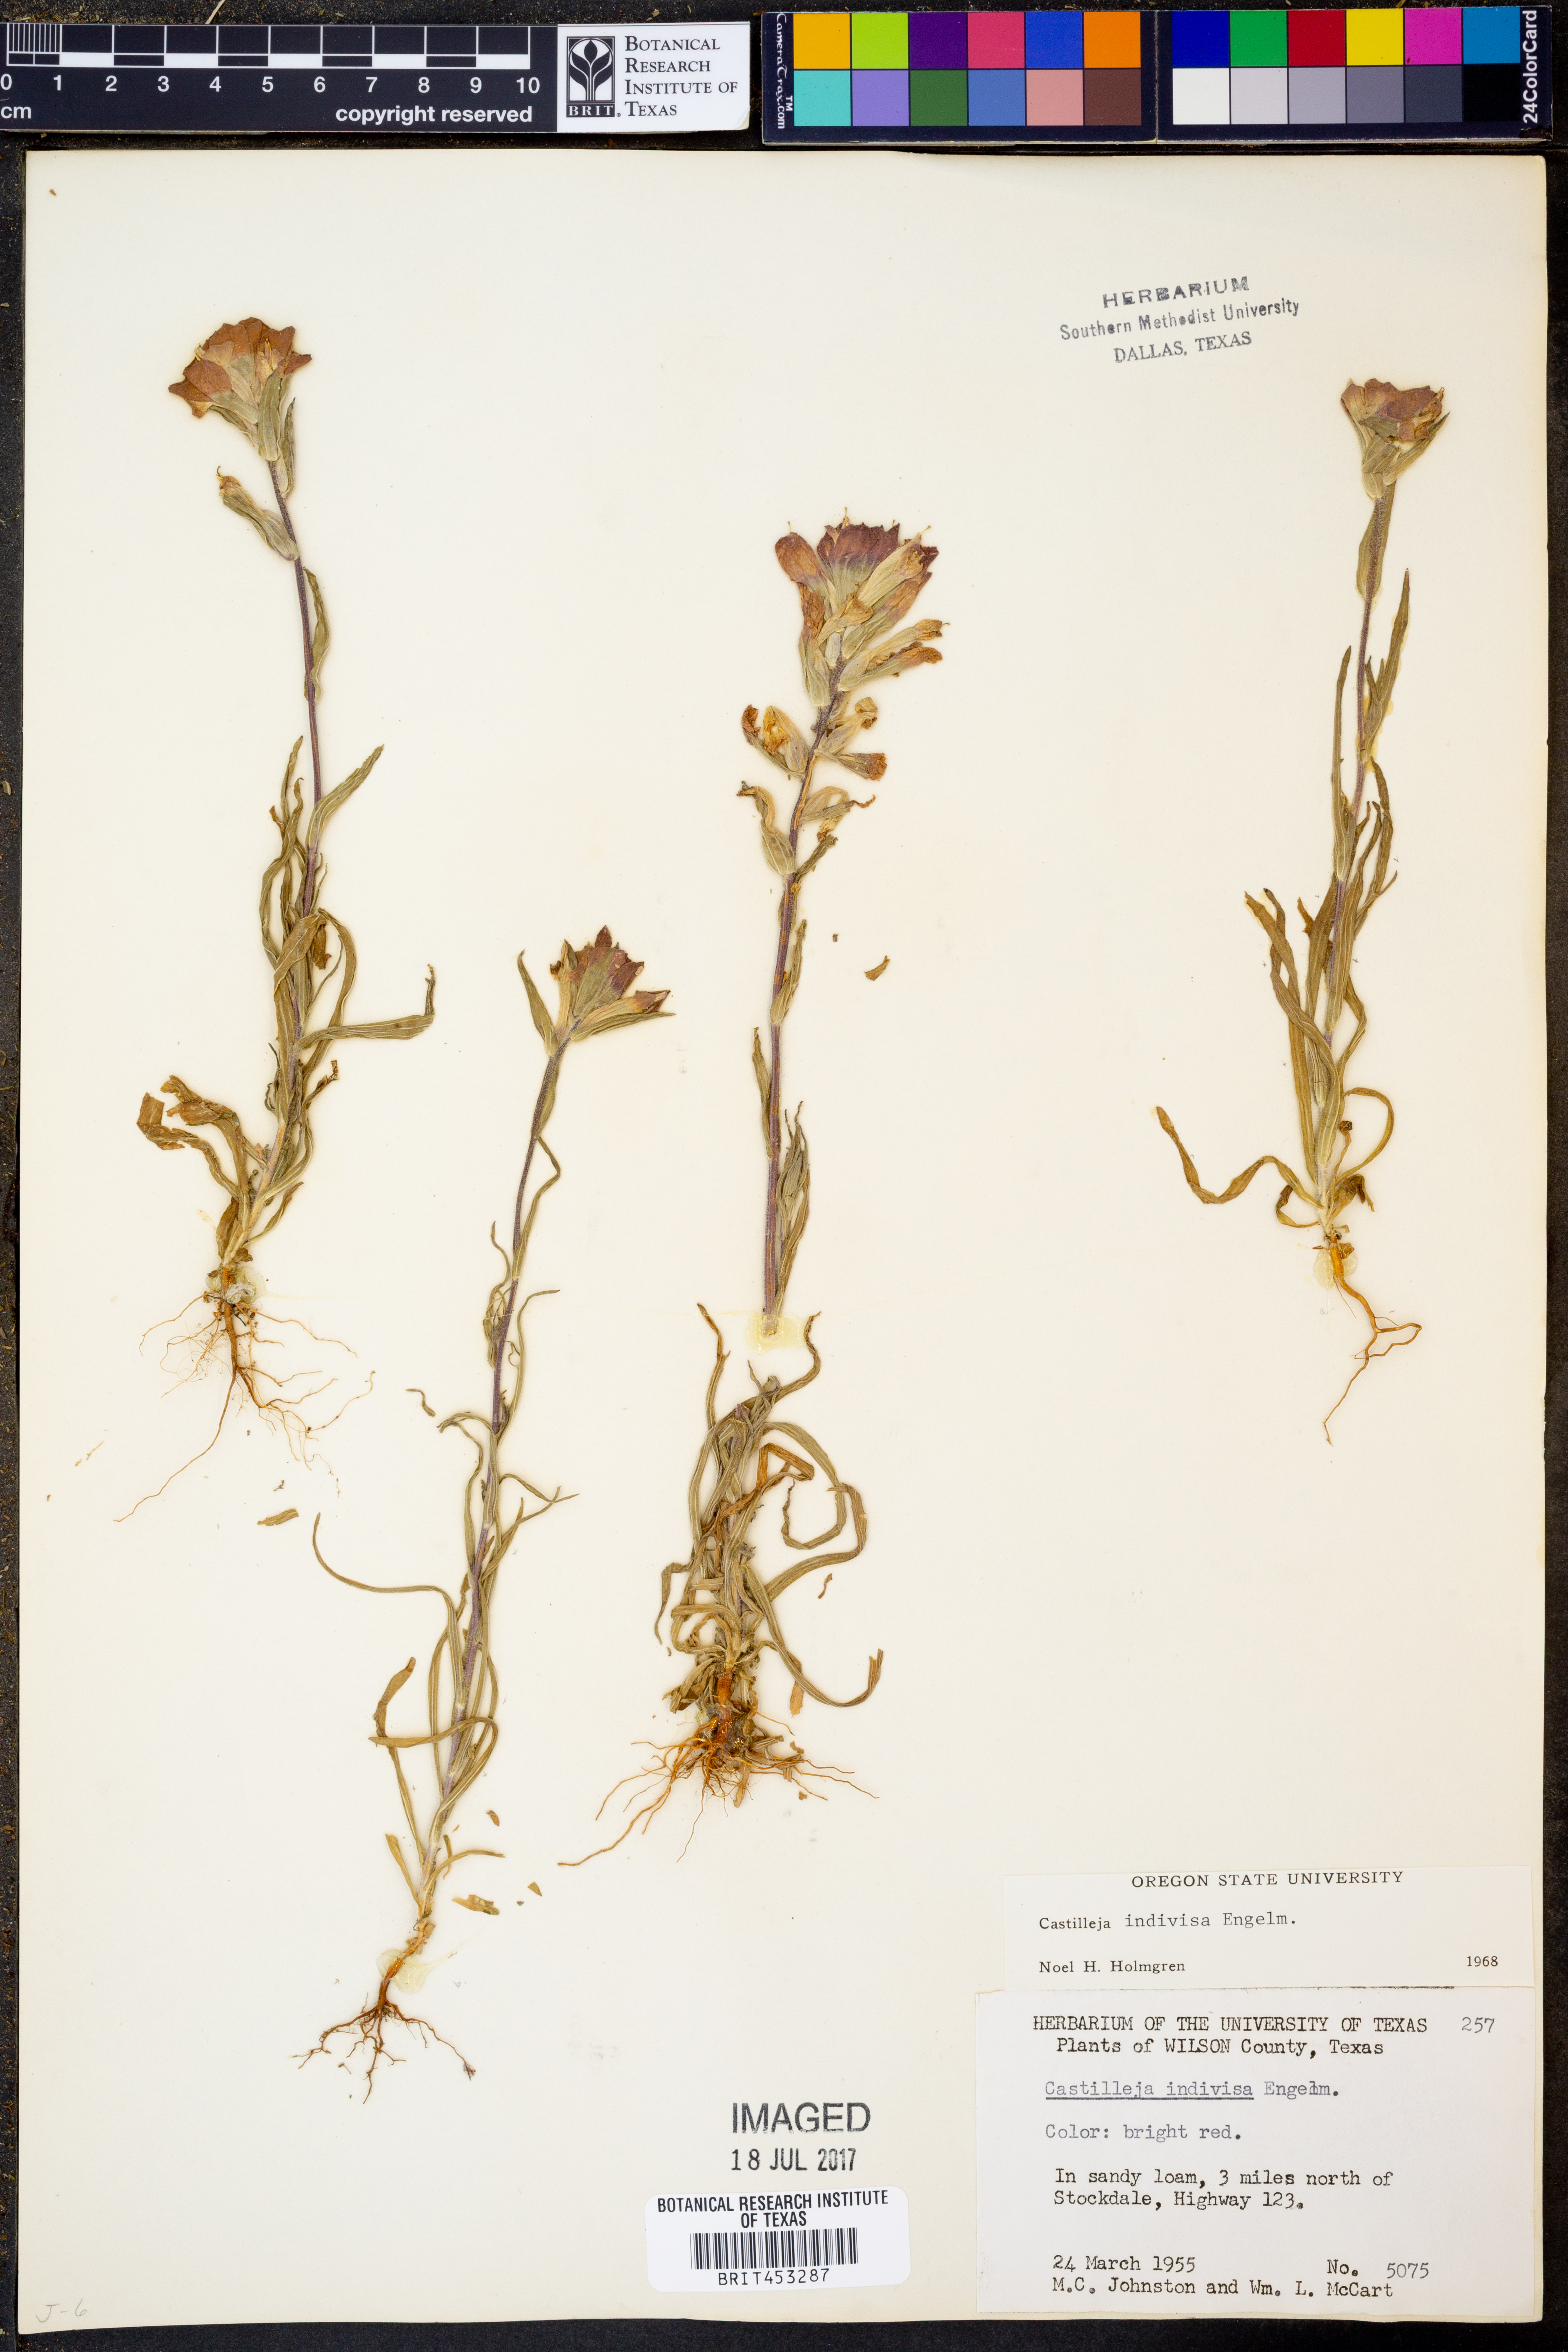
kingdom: Plantae
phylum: Tracheophyta
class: Magnoliopsida
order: Lamiales
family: Orobanchaceae
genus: Castilleja
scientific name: Castilleja indivisa
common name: Texas paintbrush
